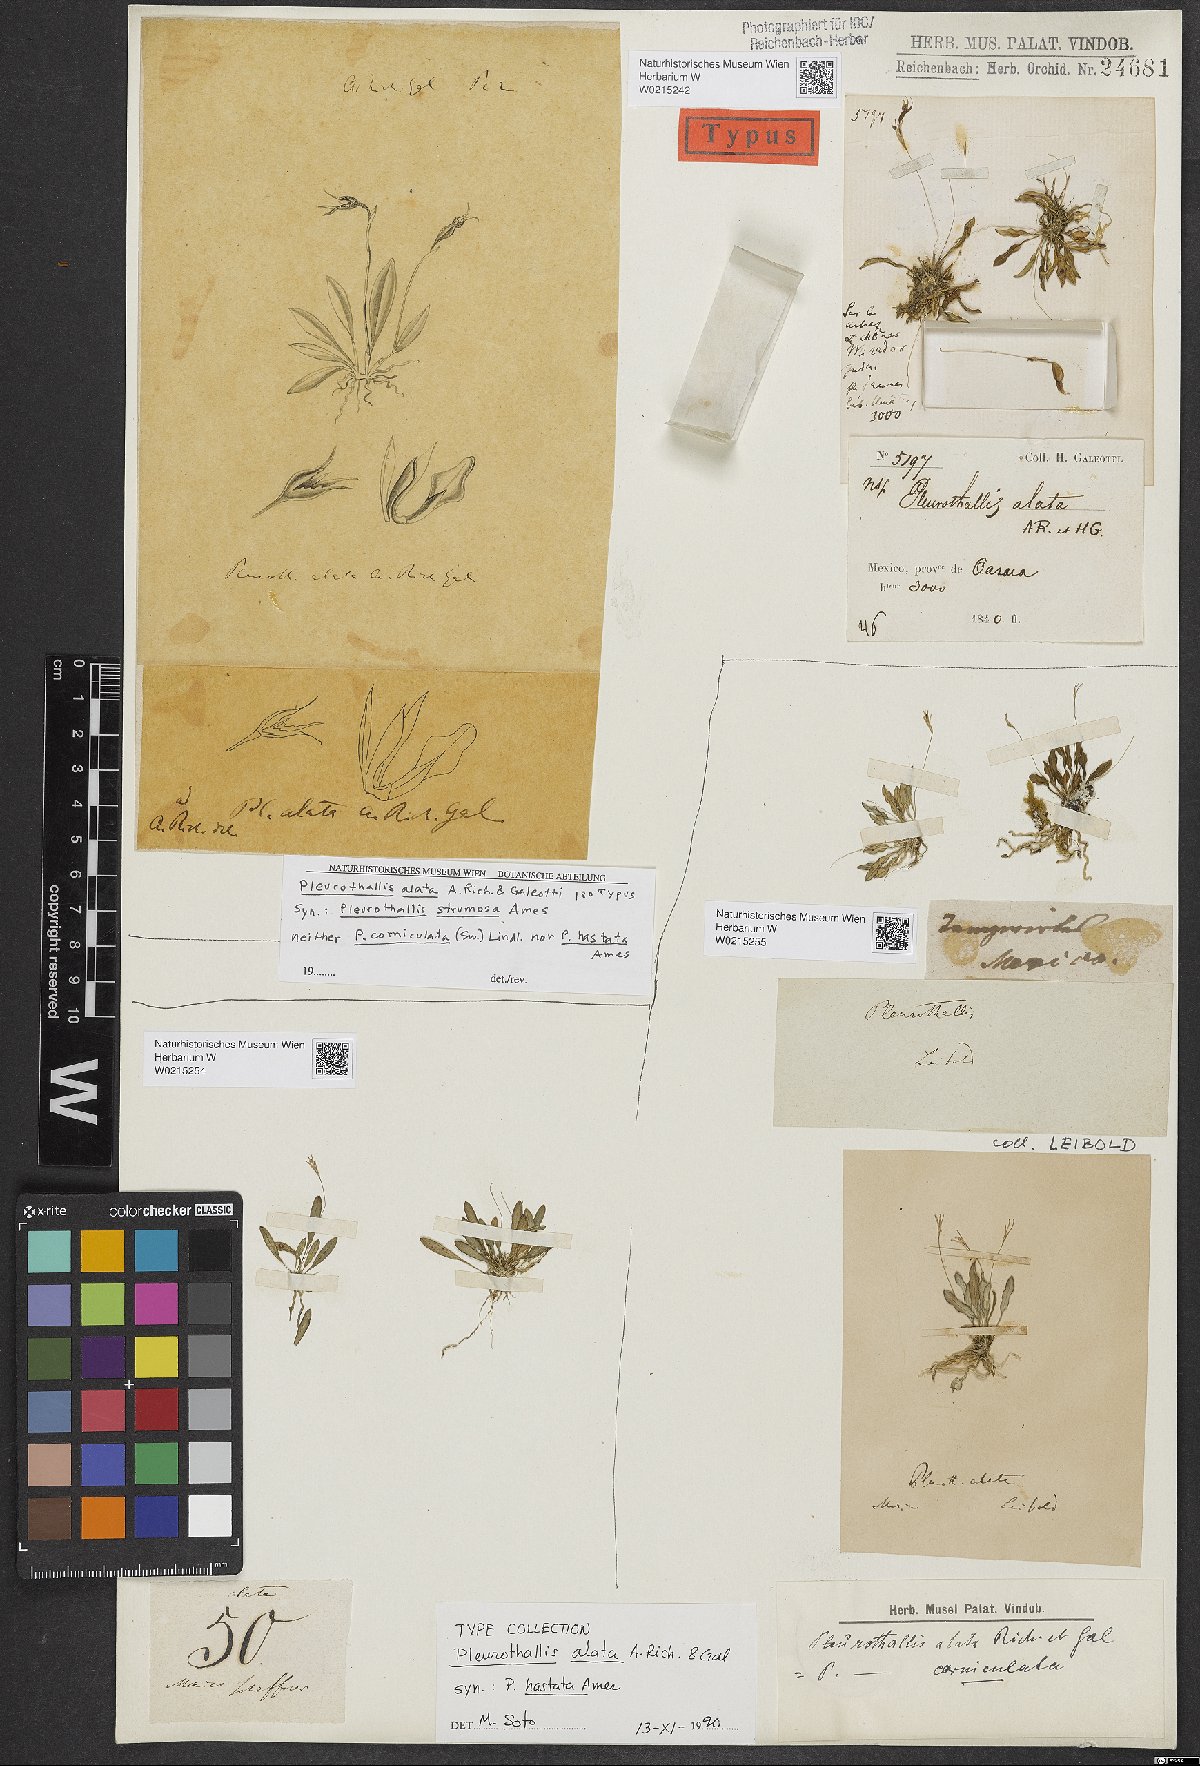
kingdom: Plantae
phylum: Tracheophyta
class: Liliopsida
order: Asparagales
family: Orchidaceae
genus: Muscarella
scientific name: Muscarella marginata
